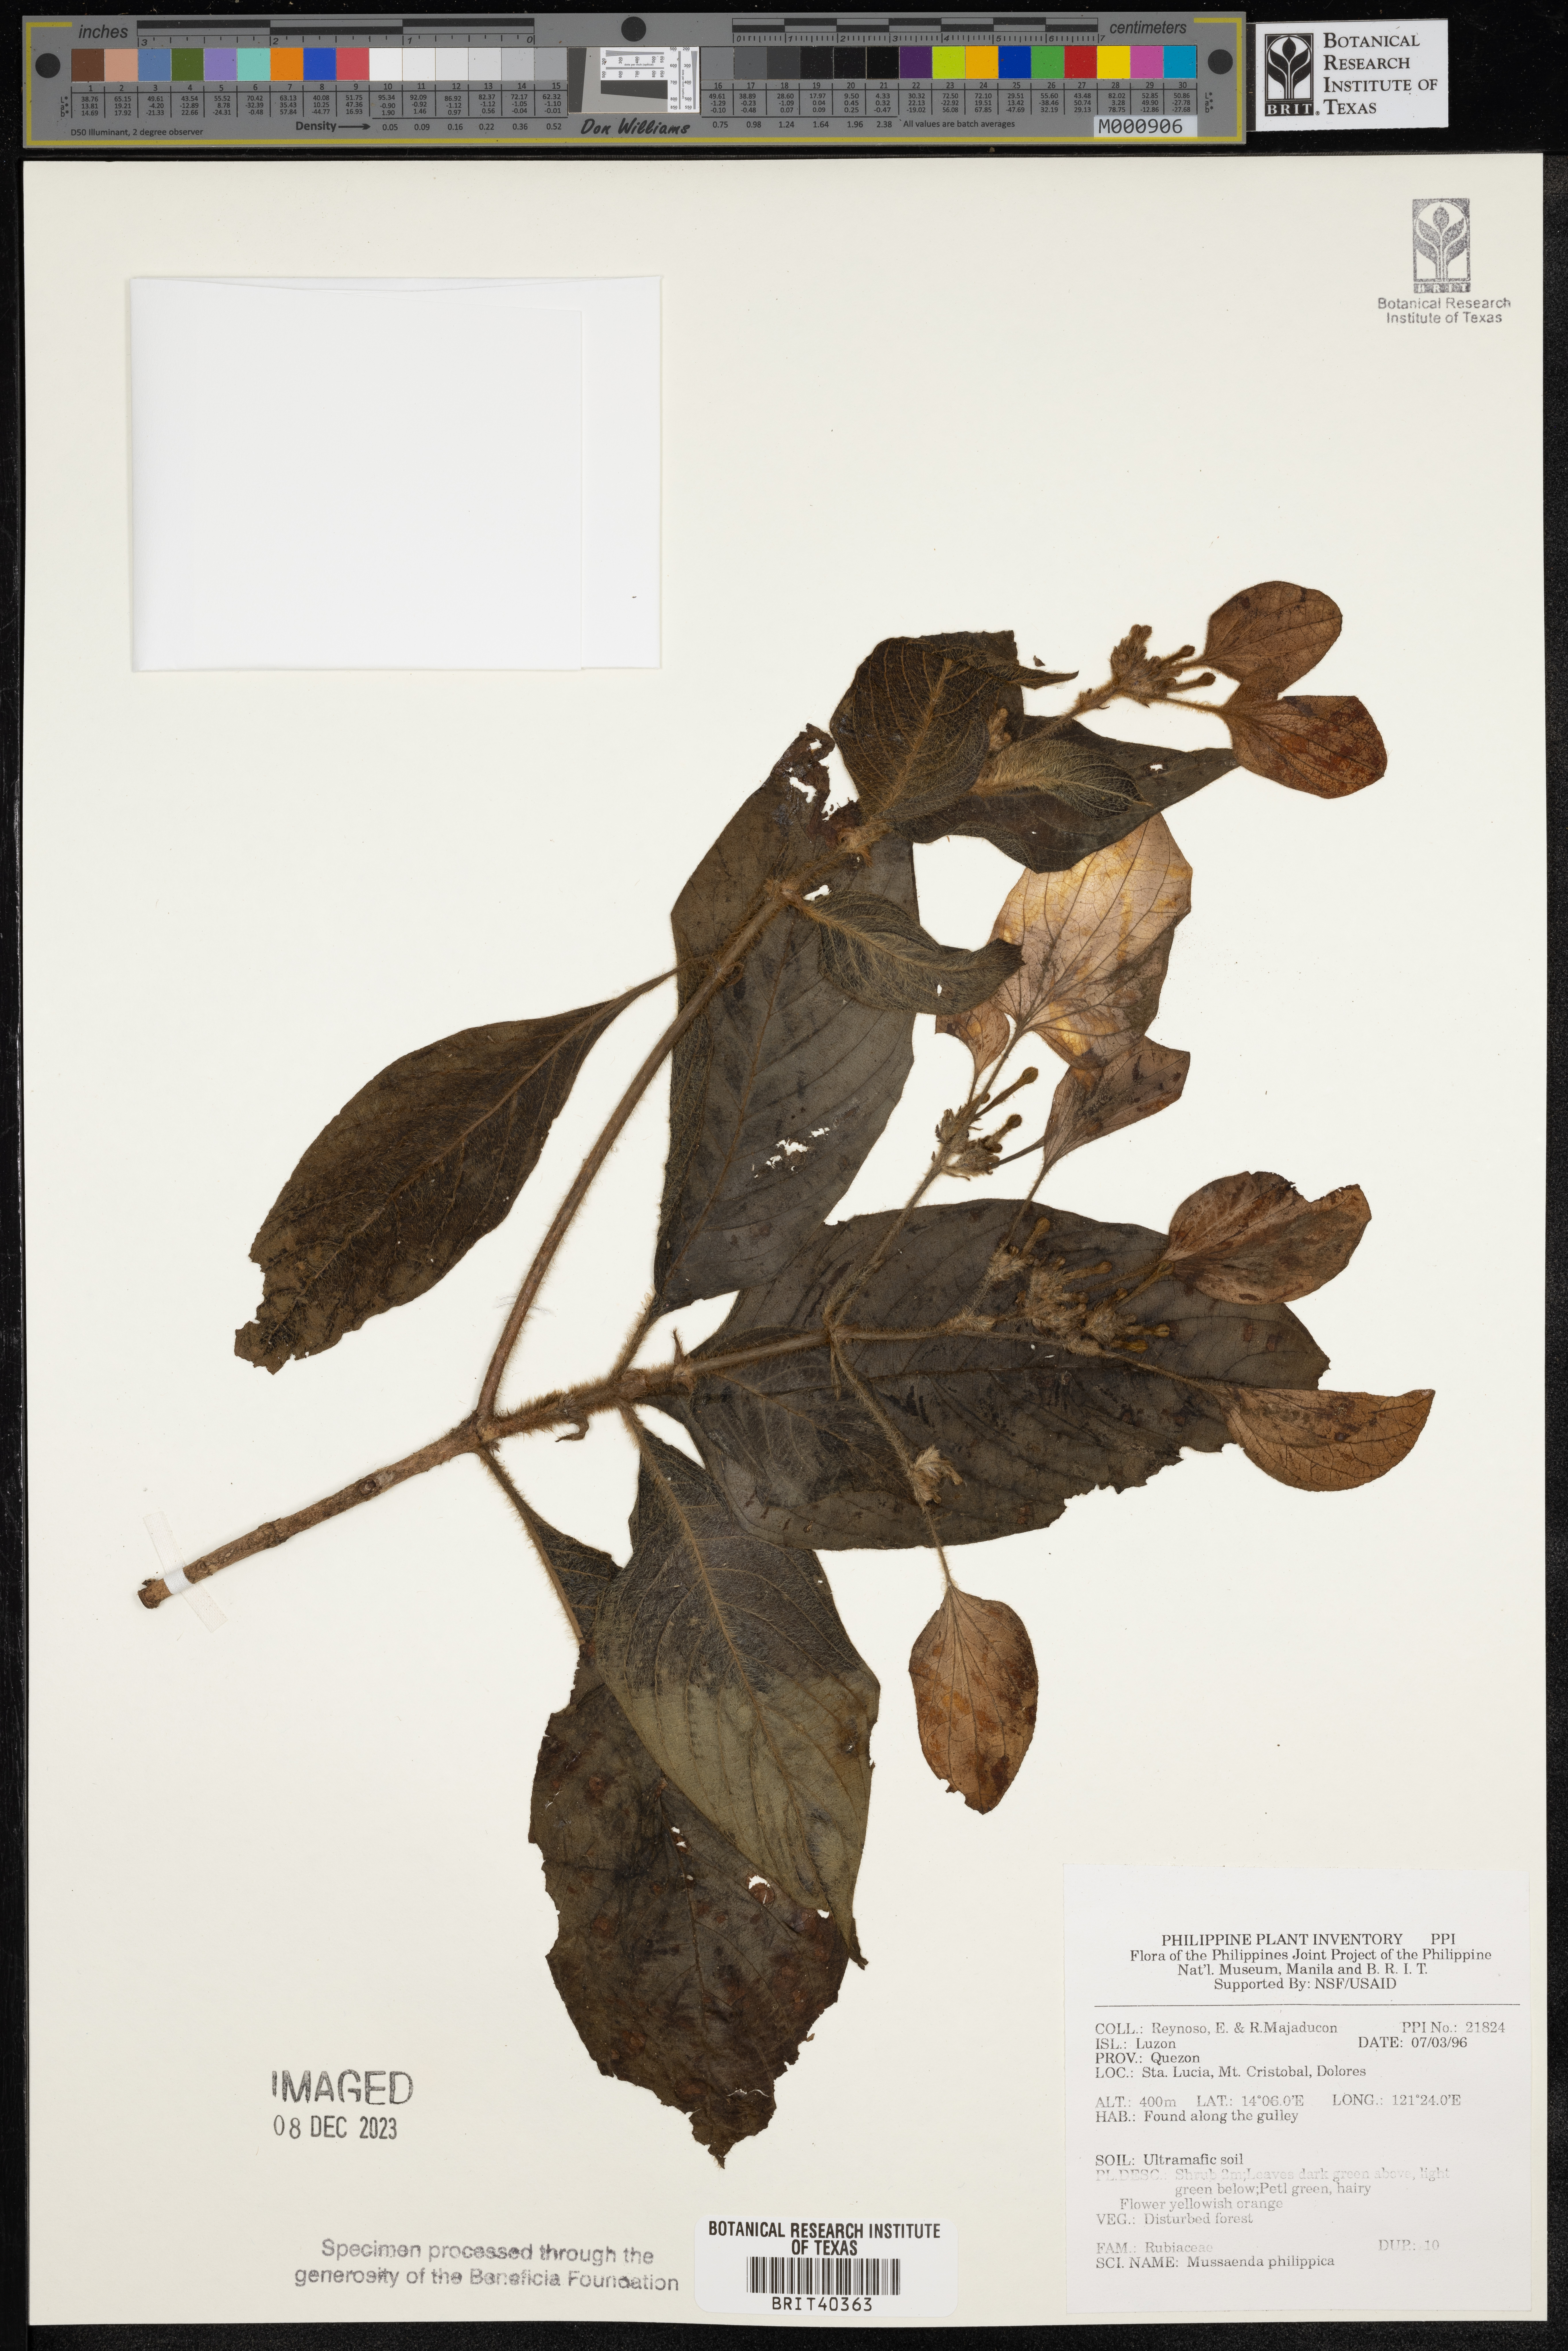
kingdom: Plantae
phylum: Tracheophyta
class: Magnoliopsida
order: Gentianales
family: Rubiaceae
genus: Mussaenda
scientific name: Mussaenda philippica
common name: Philippine mussaenda
